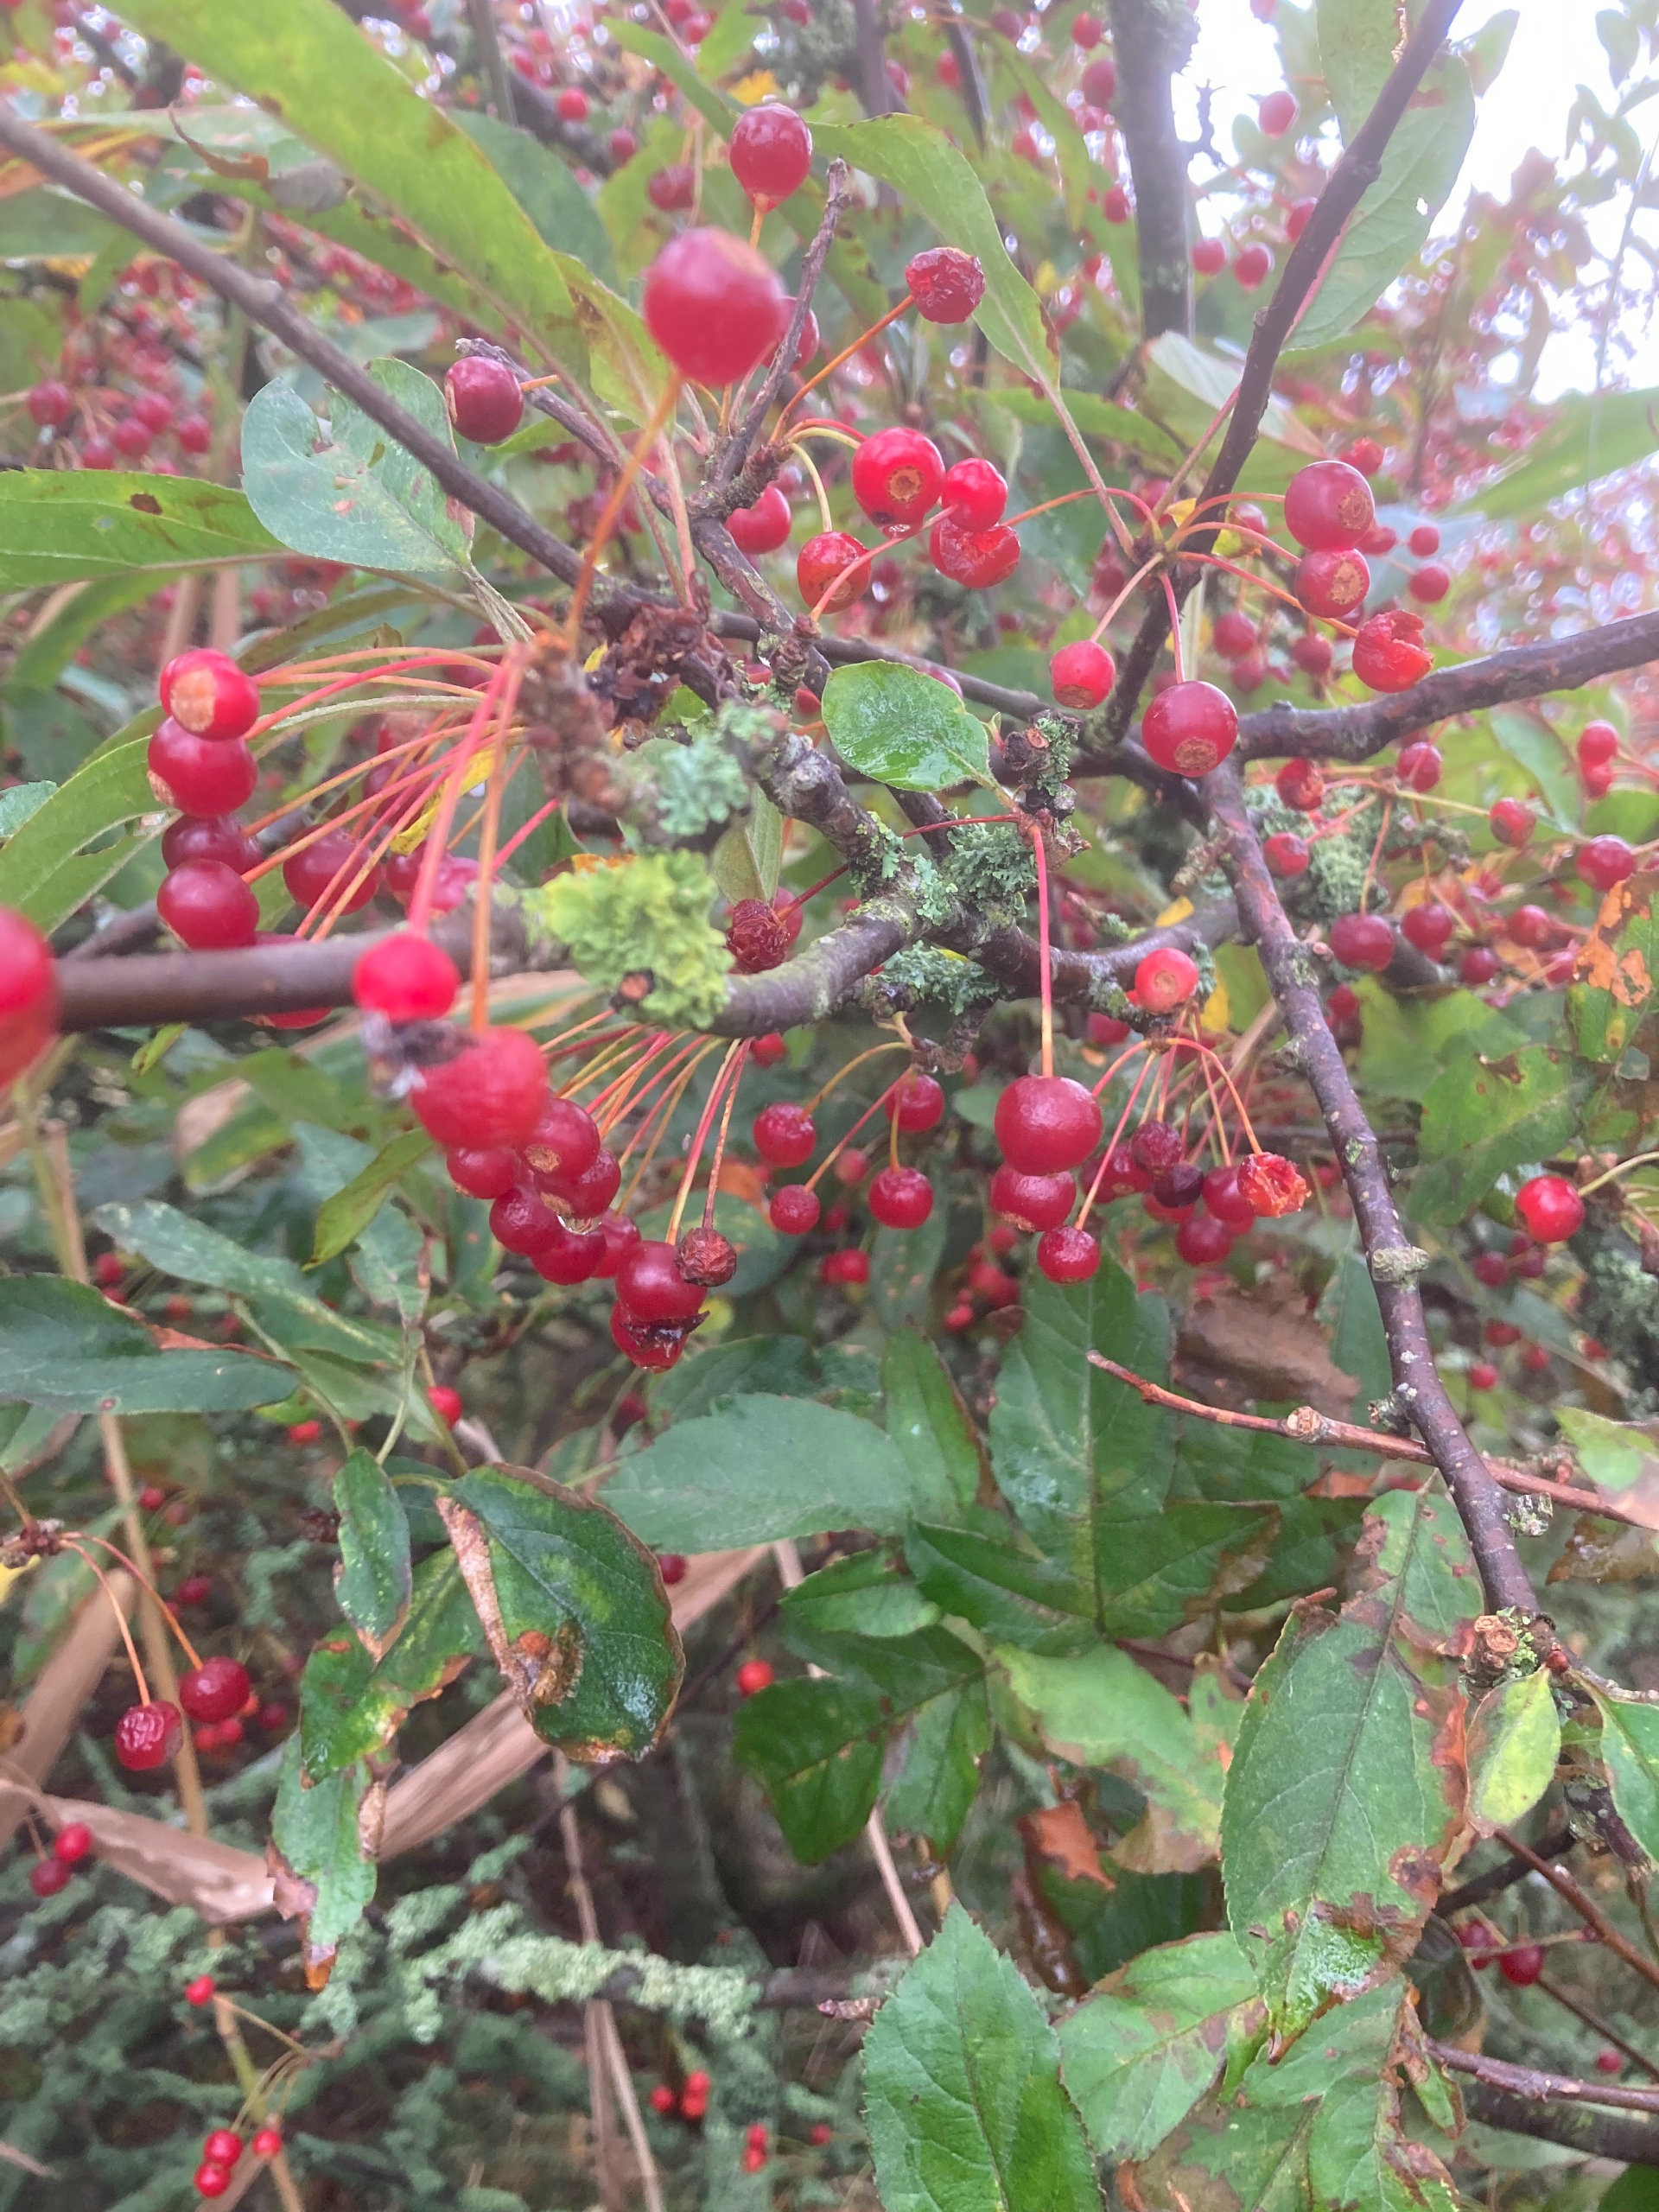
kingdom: Plantae
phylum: Tracheophyta
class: Magnoliopsida
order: Rosales
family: Rosaceae
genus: Malus
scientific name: Malus toringo
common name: Sargents-æble
